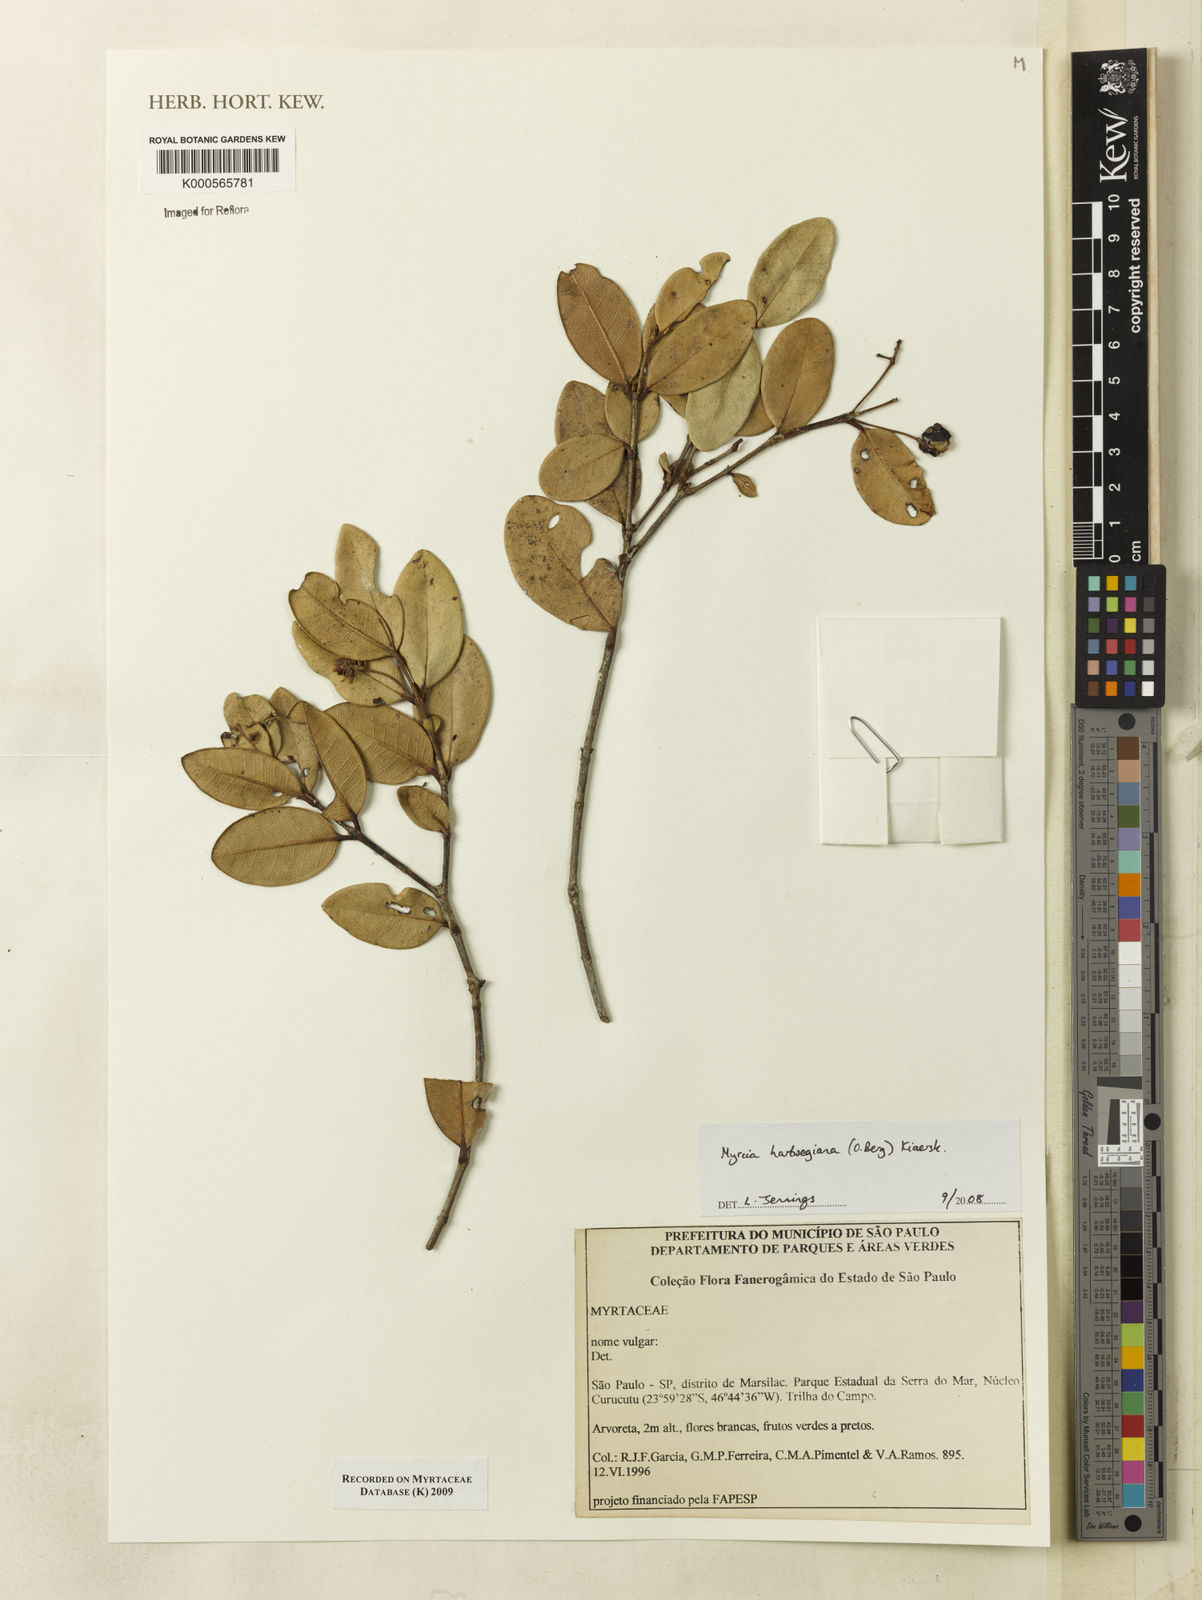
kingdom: Plantae
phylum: Tracheophyta
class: Magnoliopsida
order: Myrtales
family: Myrtaceae
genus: Myrcia
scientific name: Myrcia hartwegiana
